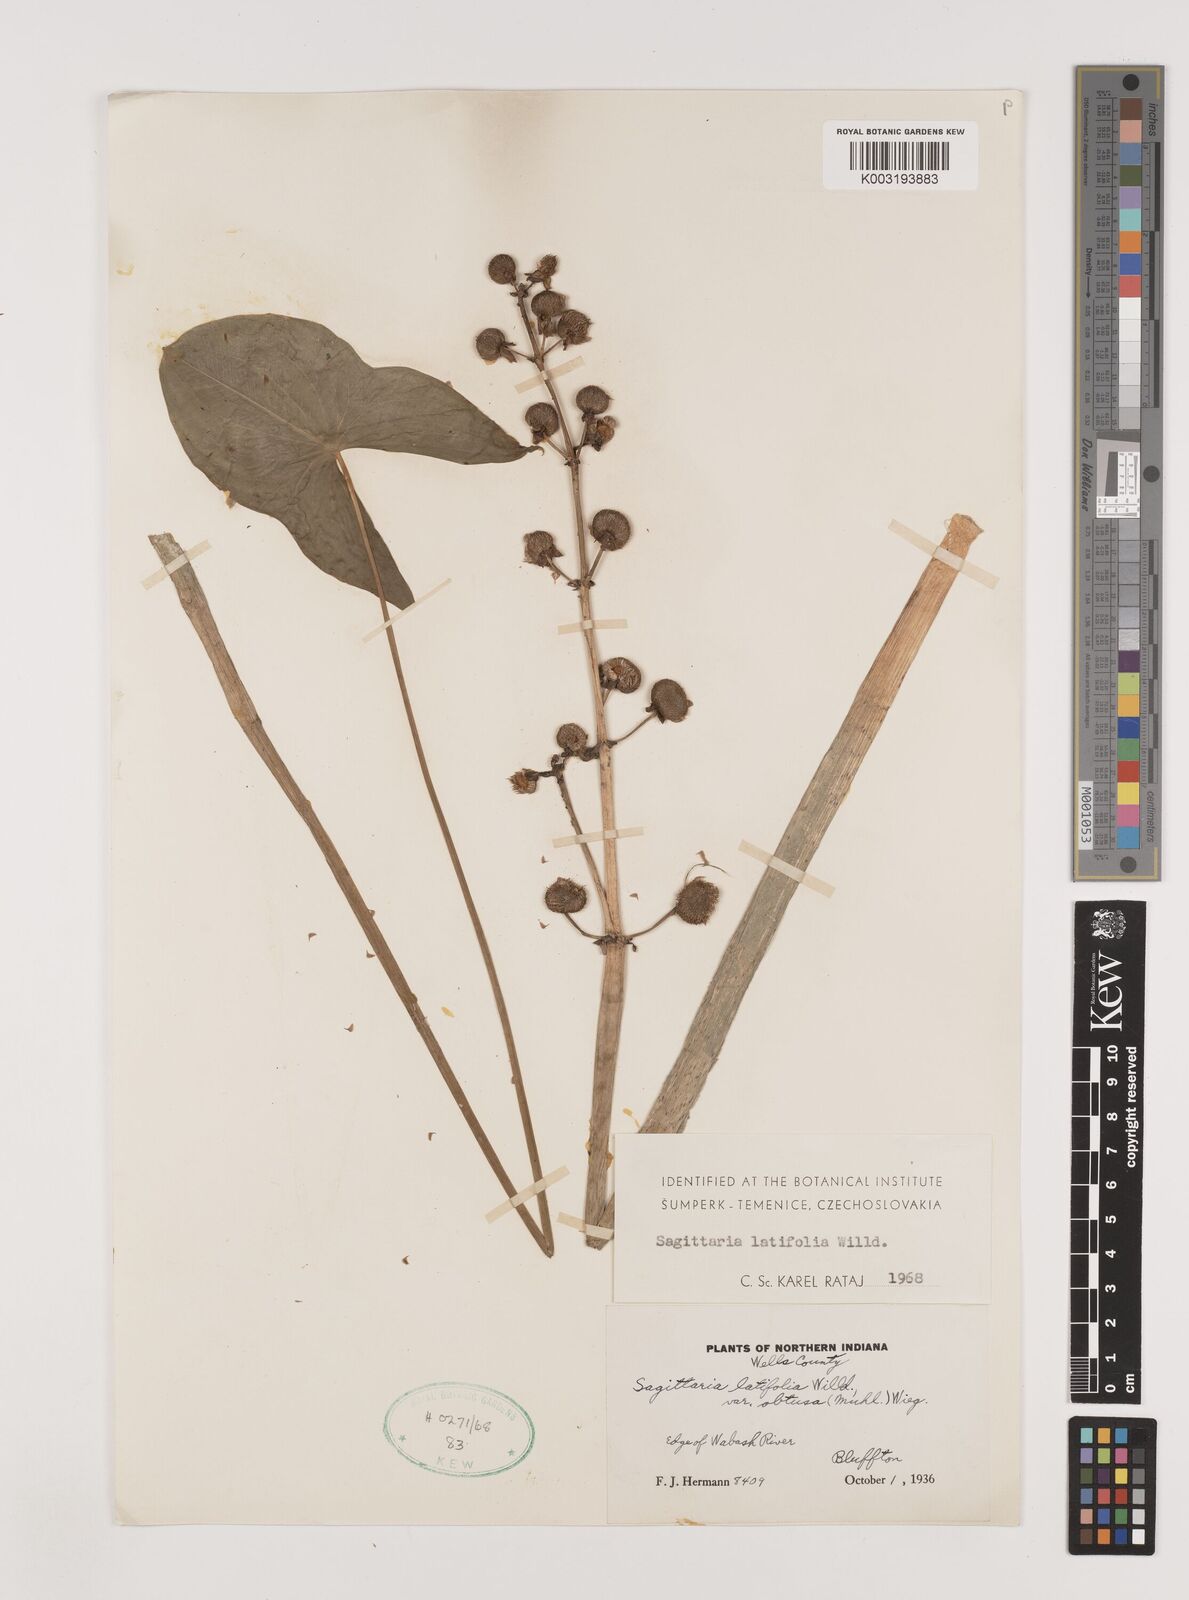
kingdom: Plantae
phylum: Tracheophyta
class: Liliopsida
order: Alismatales
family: Alismataceae
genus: Sagittaria
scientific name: Sagittaria latifolia
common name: Duck-potato
